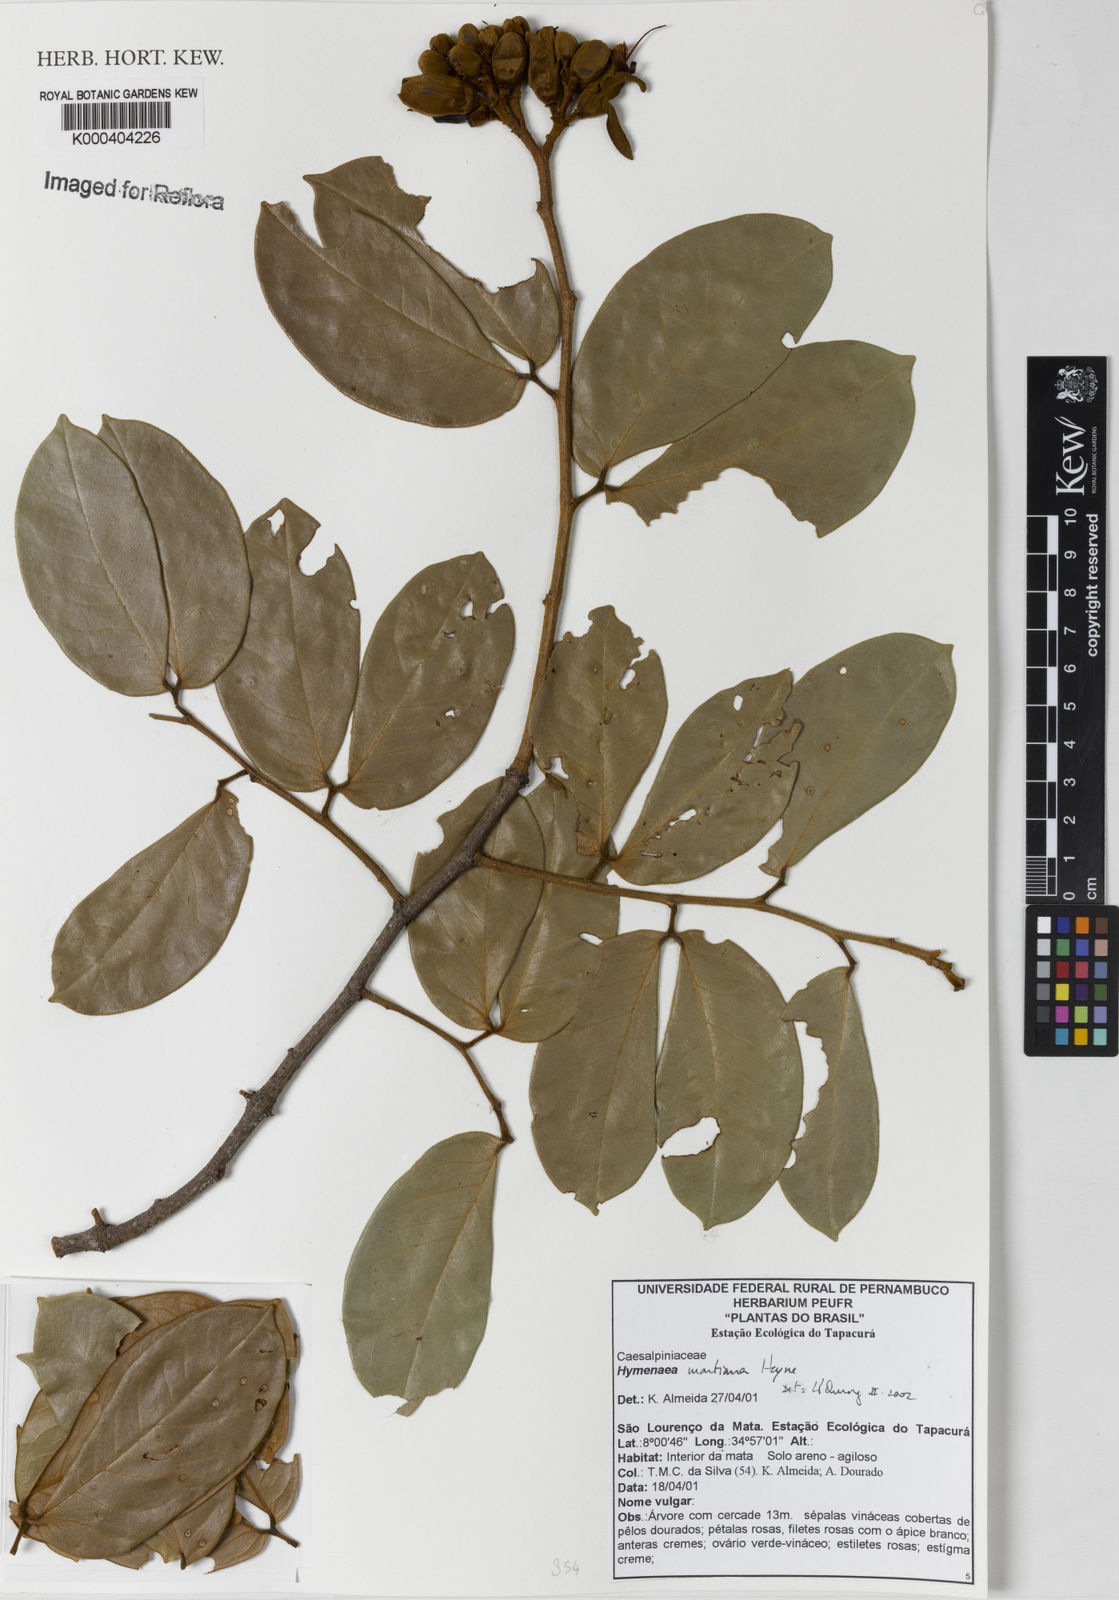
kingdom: Plantae
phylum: Tracheophyta
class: Magnoliopsida
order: Fabales
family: Fabaceae
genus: Hymenaea
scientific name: Hymenaea martiana
